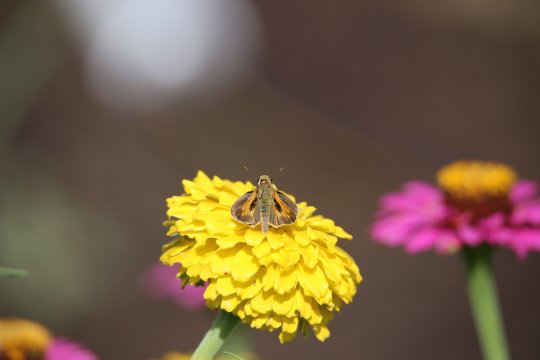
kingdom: Animalia
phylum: Arthropoda
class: Insecta
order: Lepidoptera
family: Hesperiidae
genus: Atalopedes
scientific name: Atalopedes campestris
